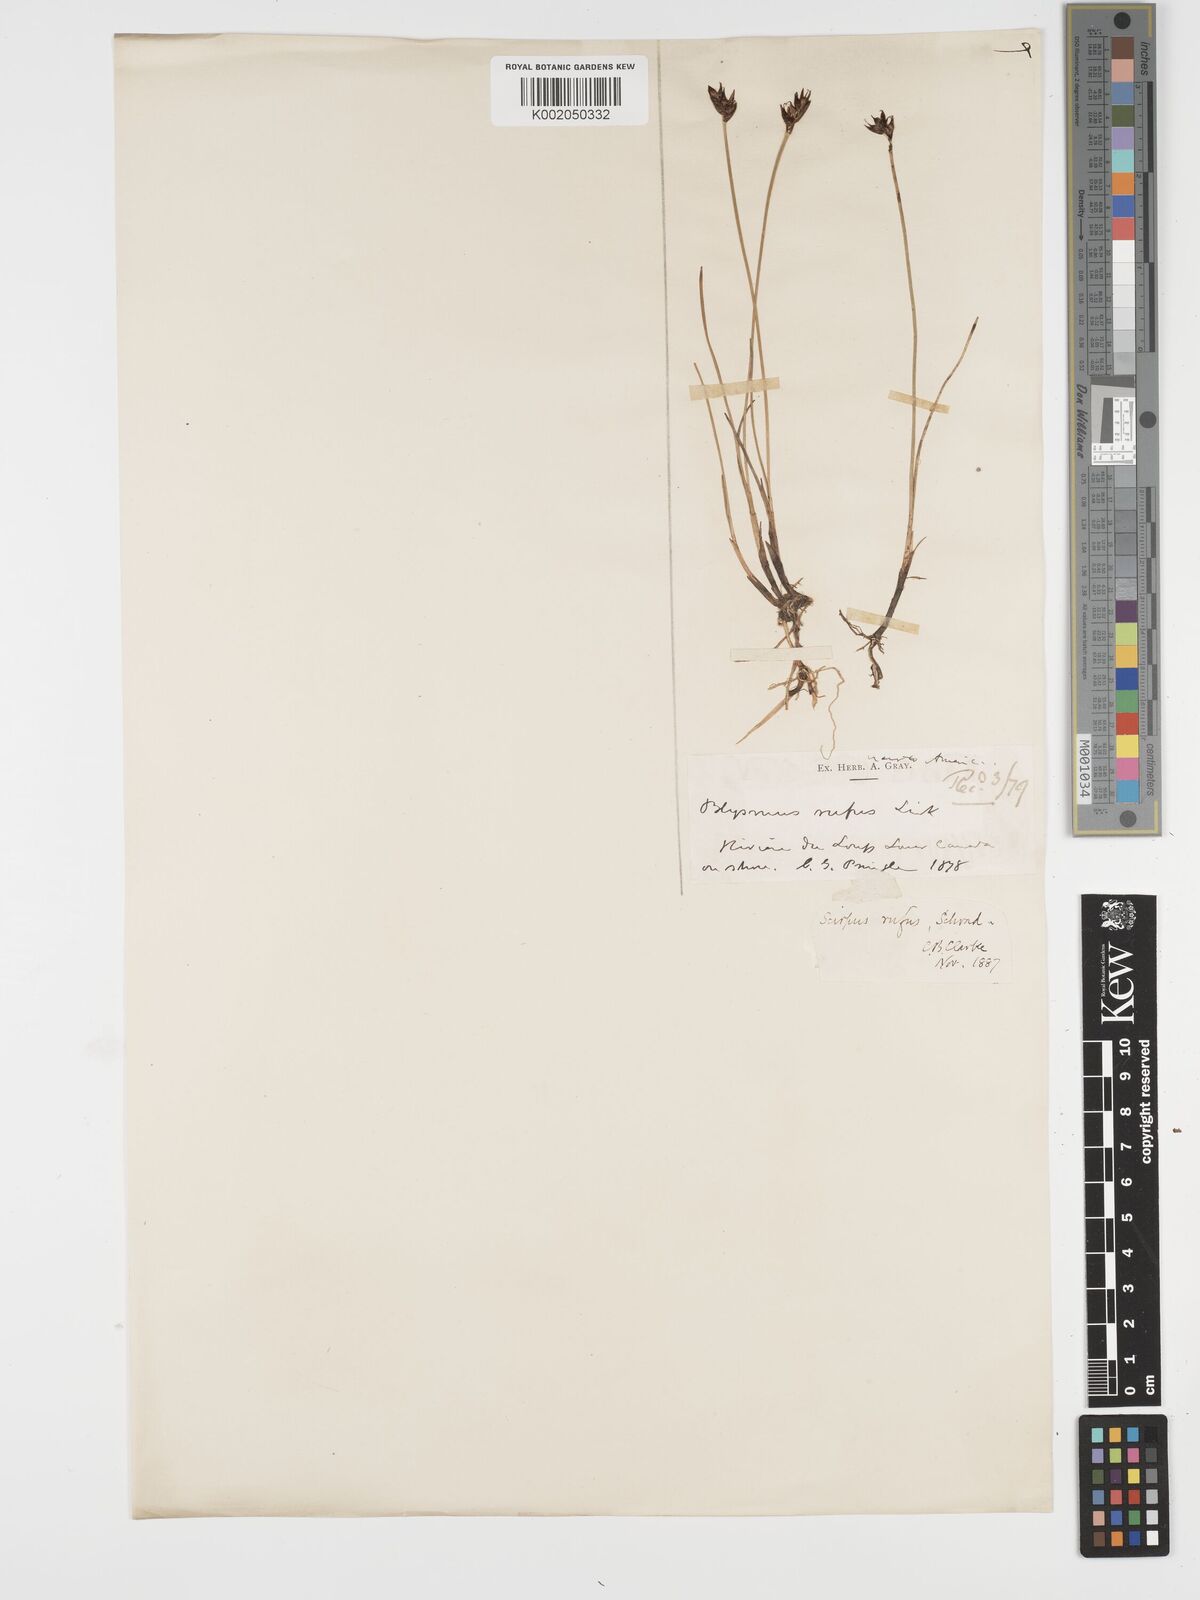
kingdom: Plantae
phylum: Tracheophyta
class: Liliopsida
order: Poales
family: Cyperaceae
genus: Blysmus
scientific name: Blysmus rufus
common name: Saltmarsh flat-sedge
